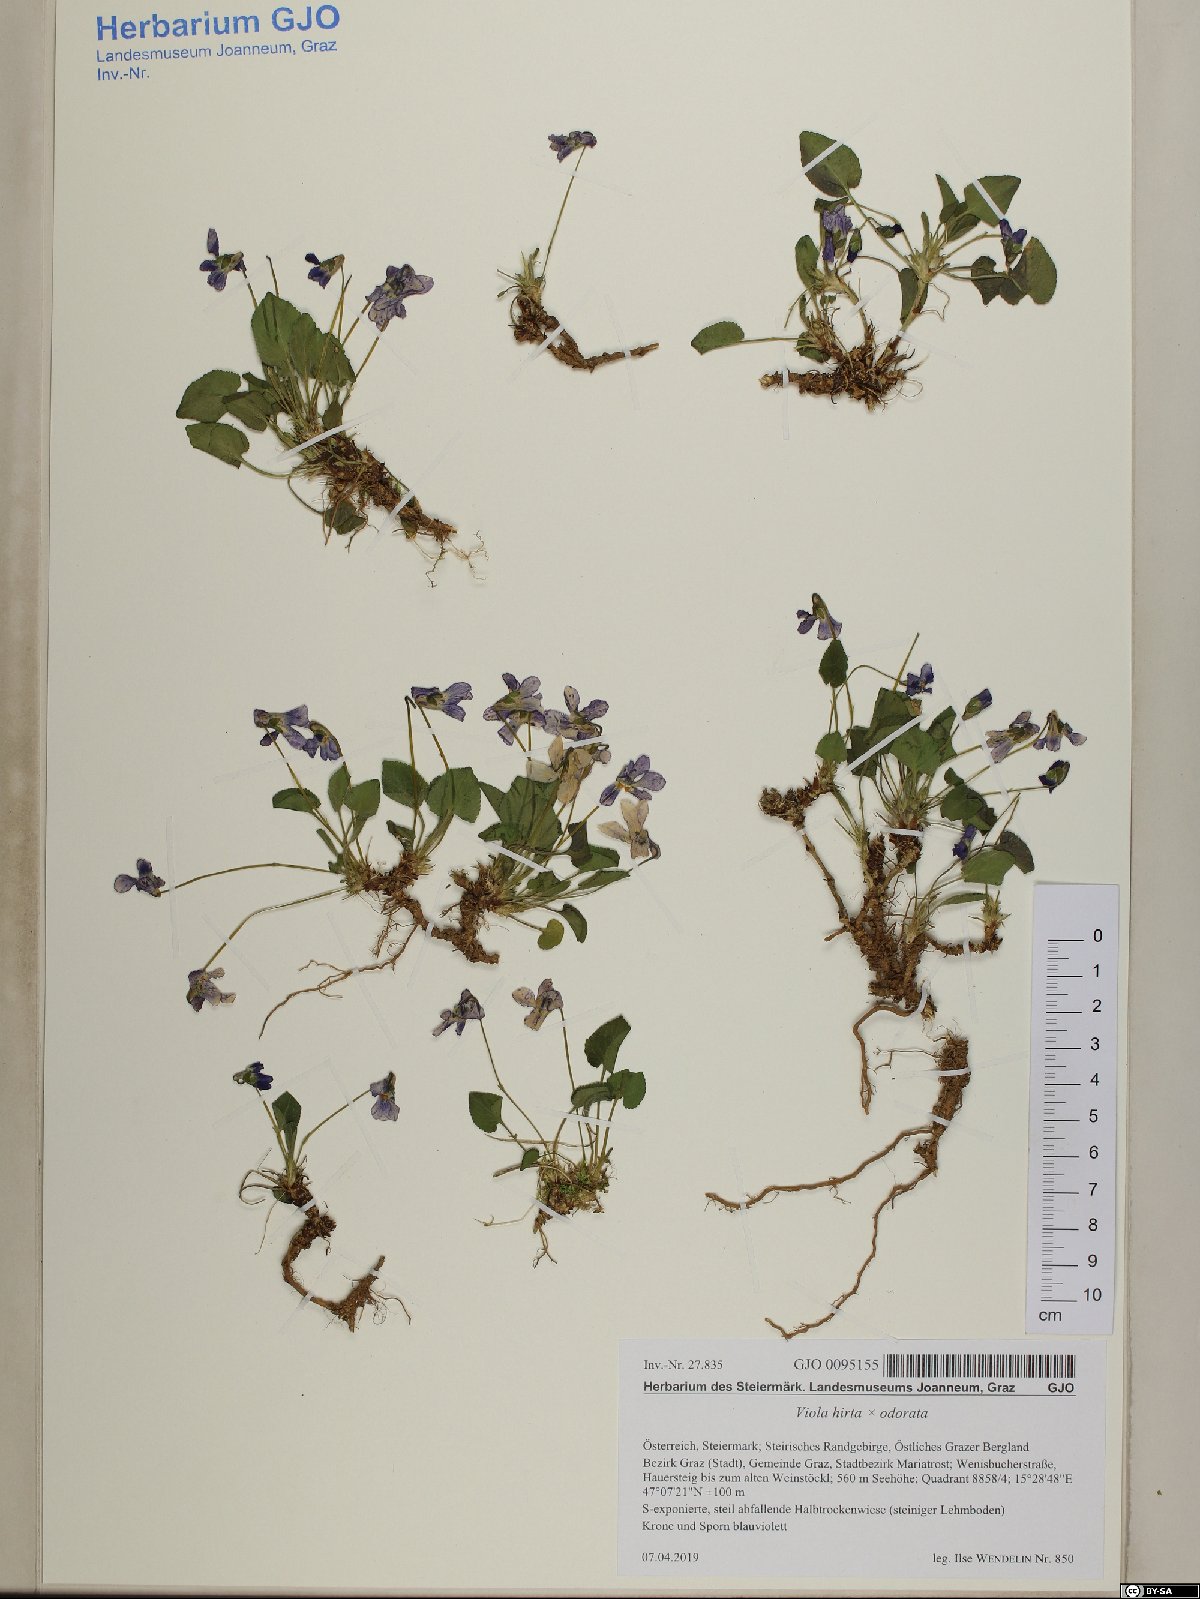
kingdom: Plantae
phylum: Tracheophyta
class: Magnoliopsida
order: Malpighiales
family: Violaceae
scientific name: Violaceae
